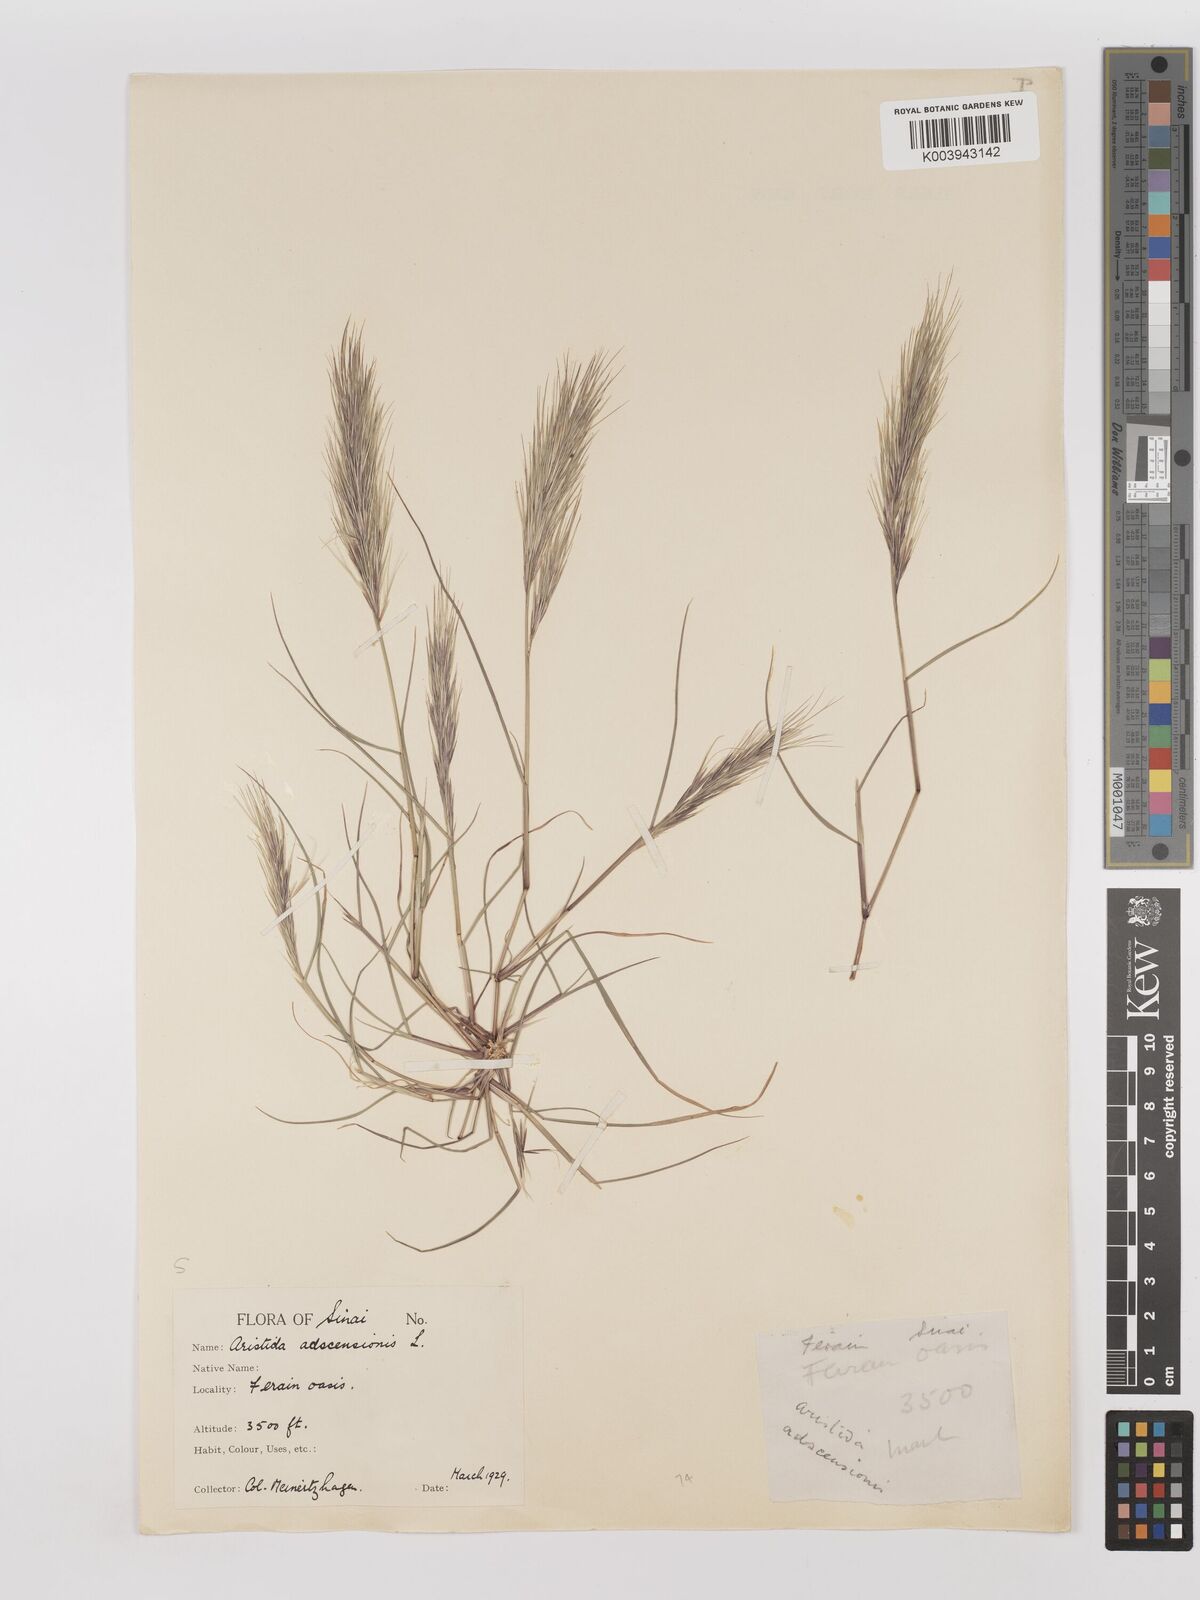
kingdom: Plantae
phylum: Tracheophyta
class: Liliopsida
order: Poales
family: Poaceae
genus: Aristida
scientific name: Aristida adscensionis
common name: Sixweeks threeawn
